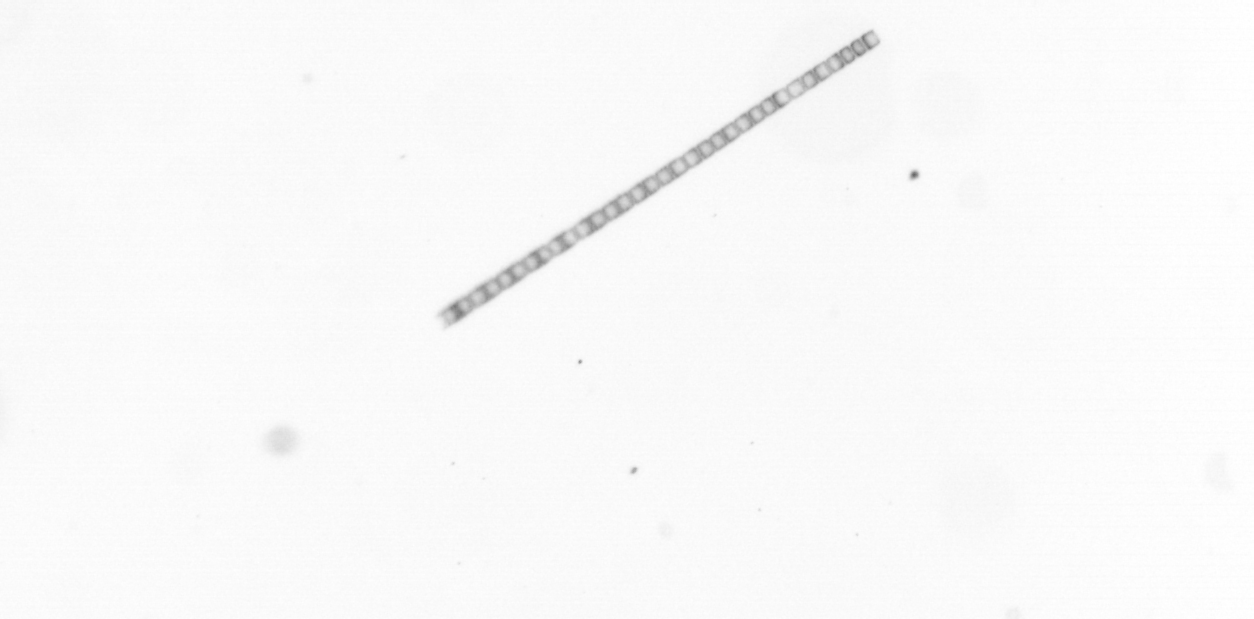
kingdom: Chromista
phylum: Ochrophyta
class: Bacillariophyceae
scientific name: Bacillariophyceae
